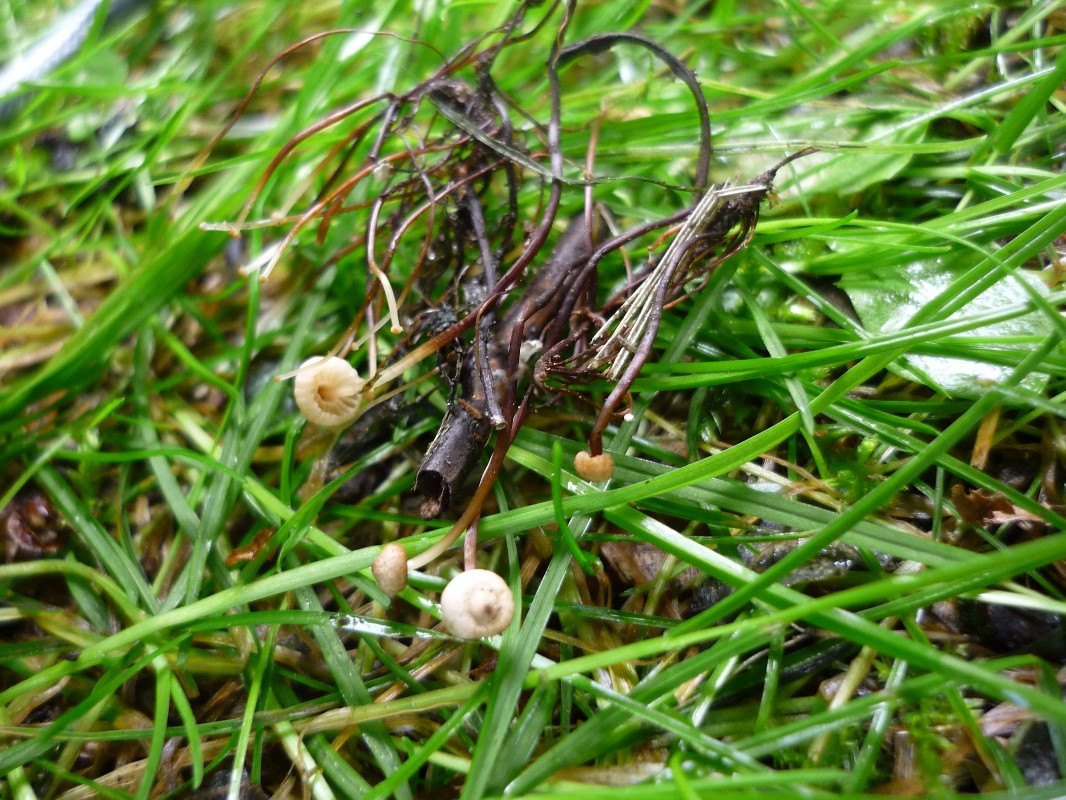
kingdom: Fungi
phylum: Basidiomycota
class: Agaricomycetes
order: Agaricales
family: Marasmiaceae
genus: Marasmius
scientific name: Marasmius rotula
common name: hjul-bruskhat
